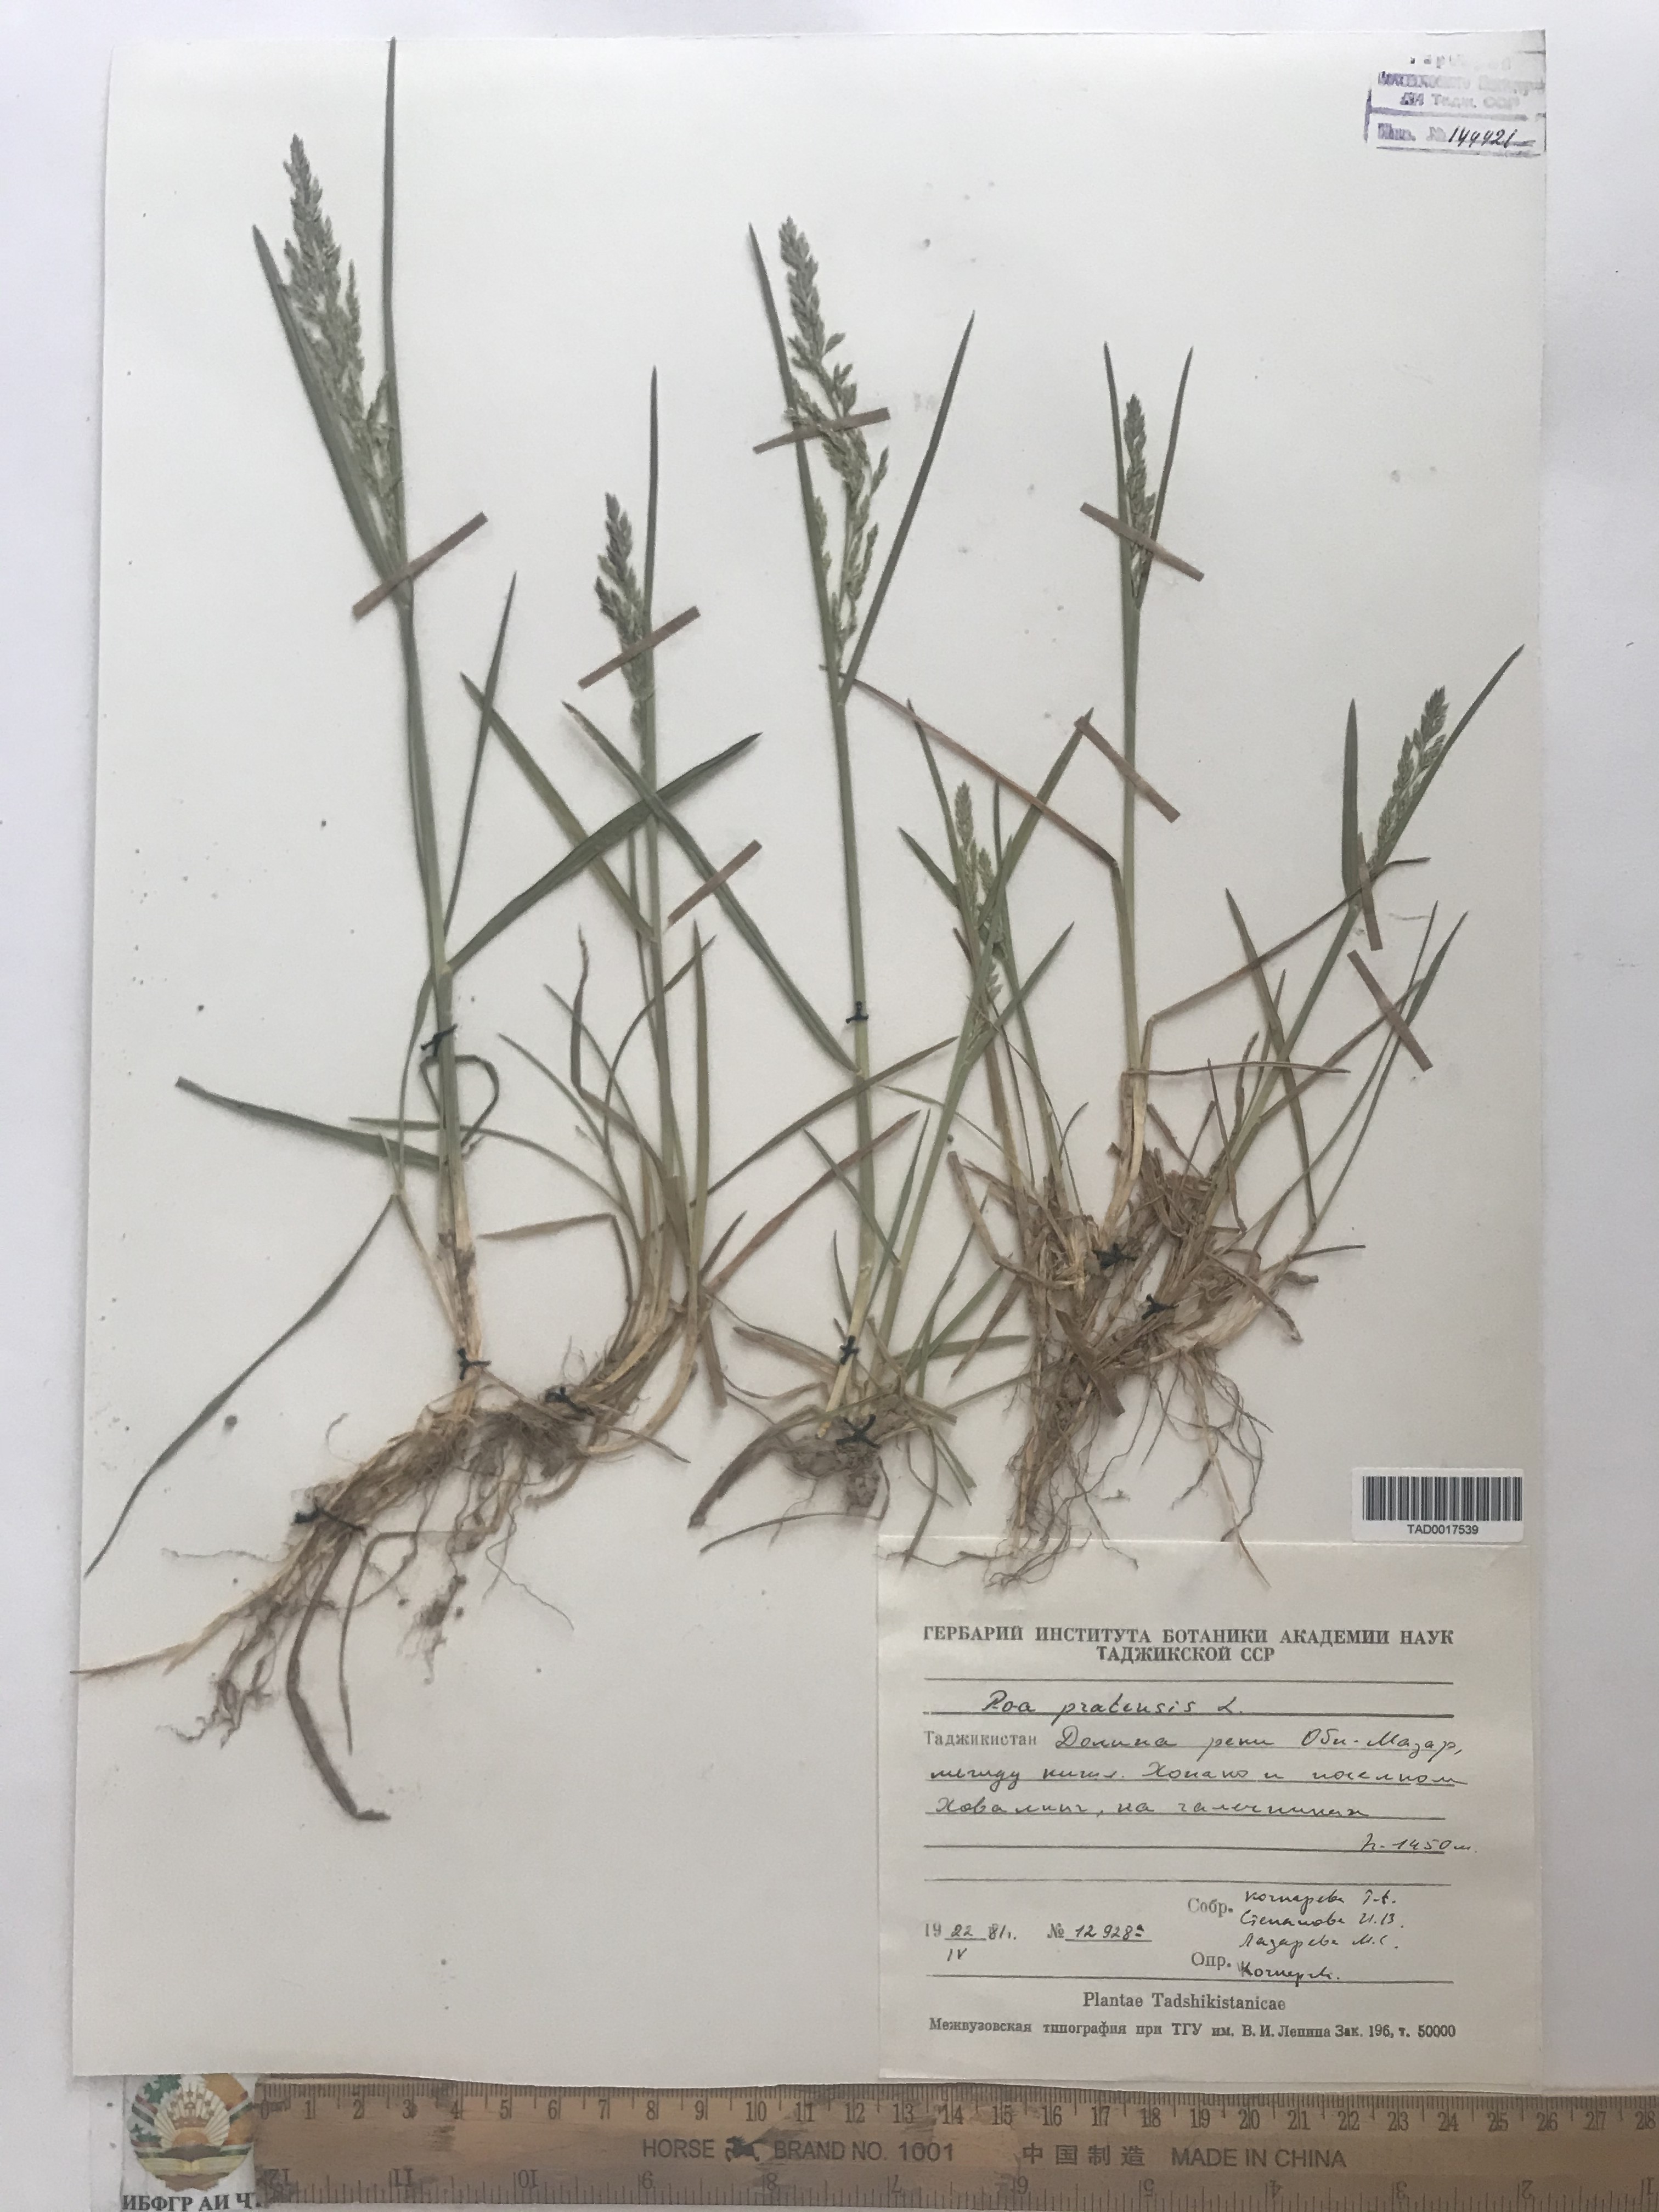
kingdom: Plantae
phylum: Tracheophyta
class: Liliopsida
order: Poales
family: Poaceae
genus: Poa
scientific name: Poa pratensis
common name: Kentucky bluegrass
